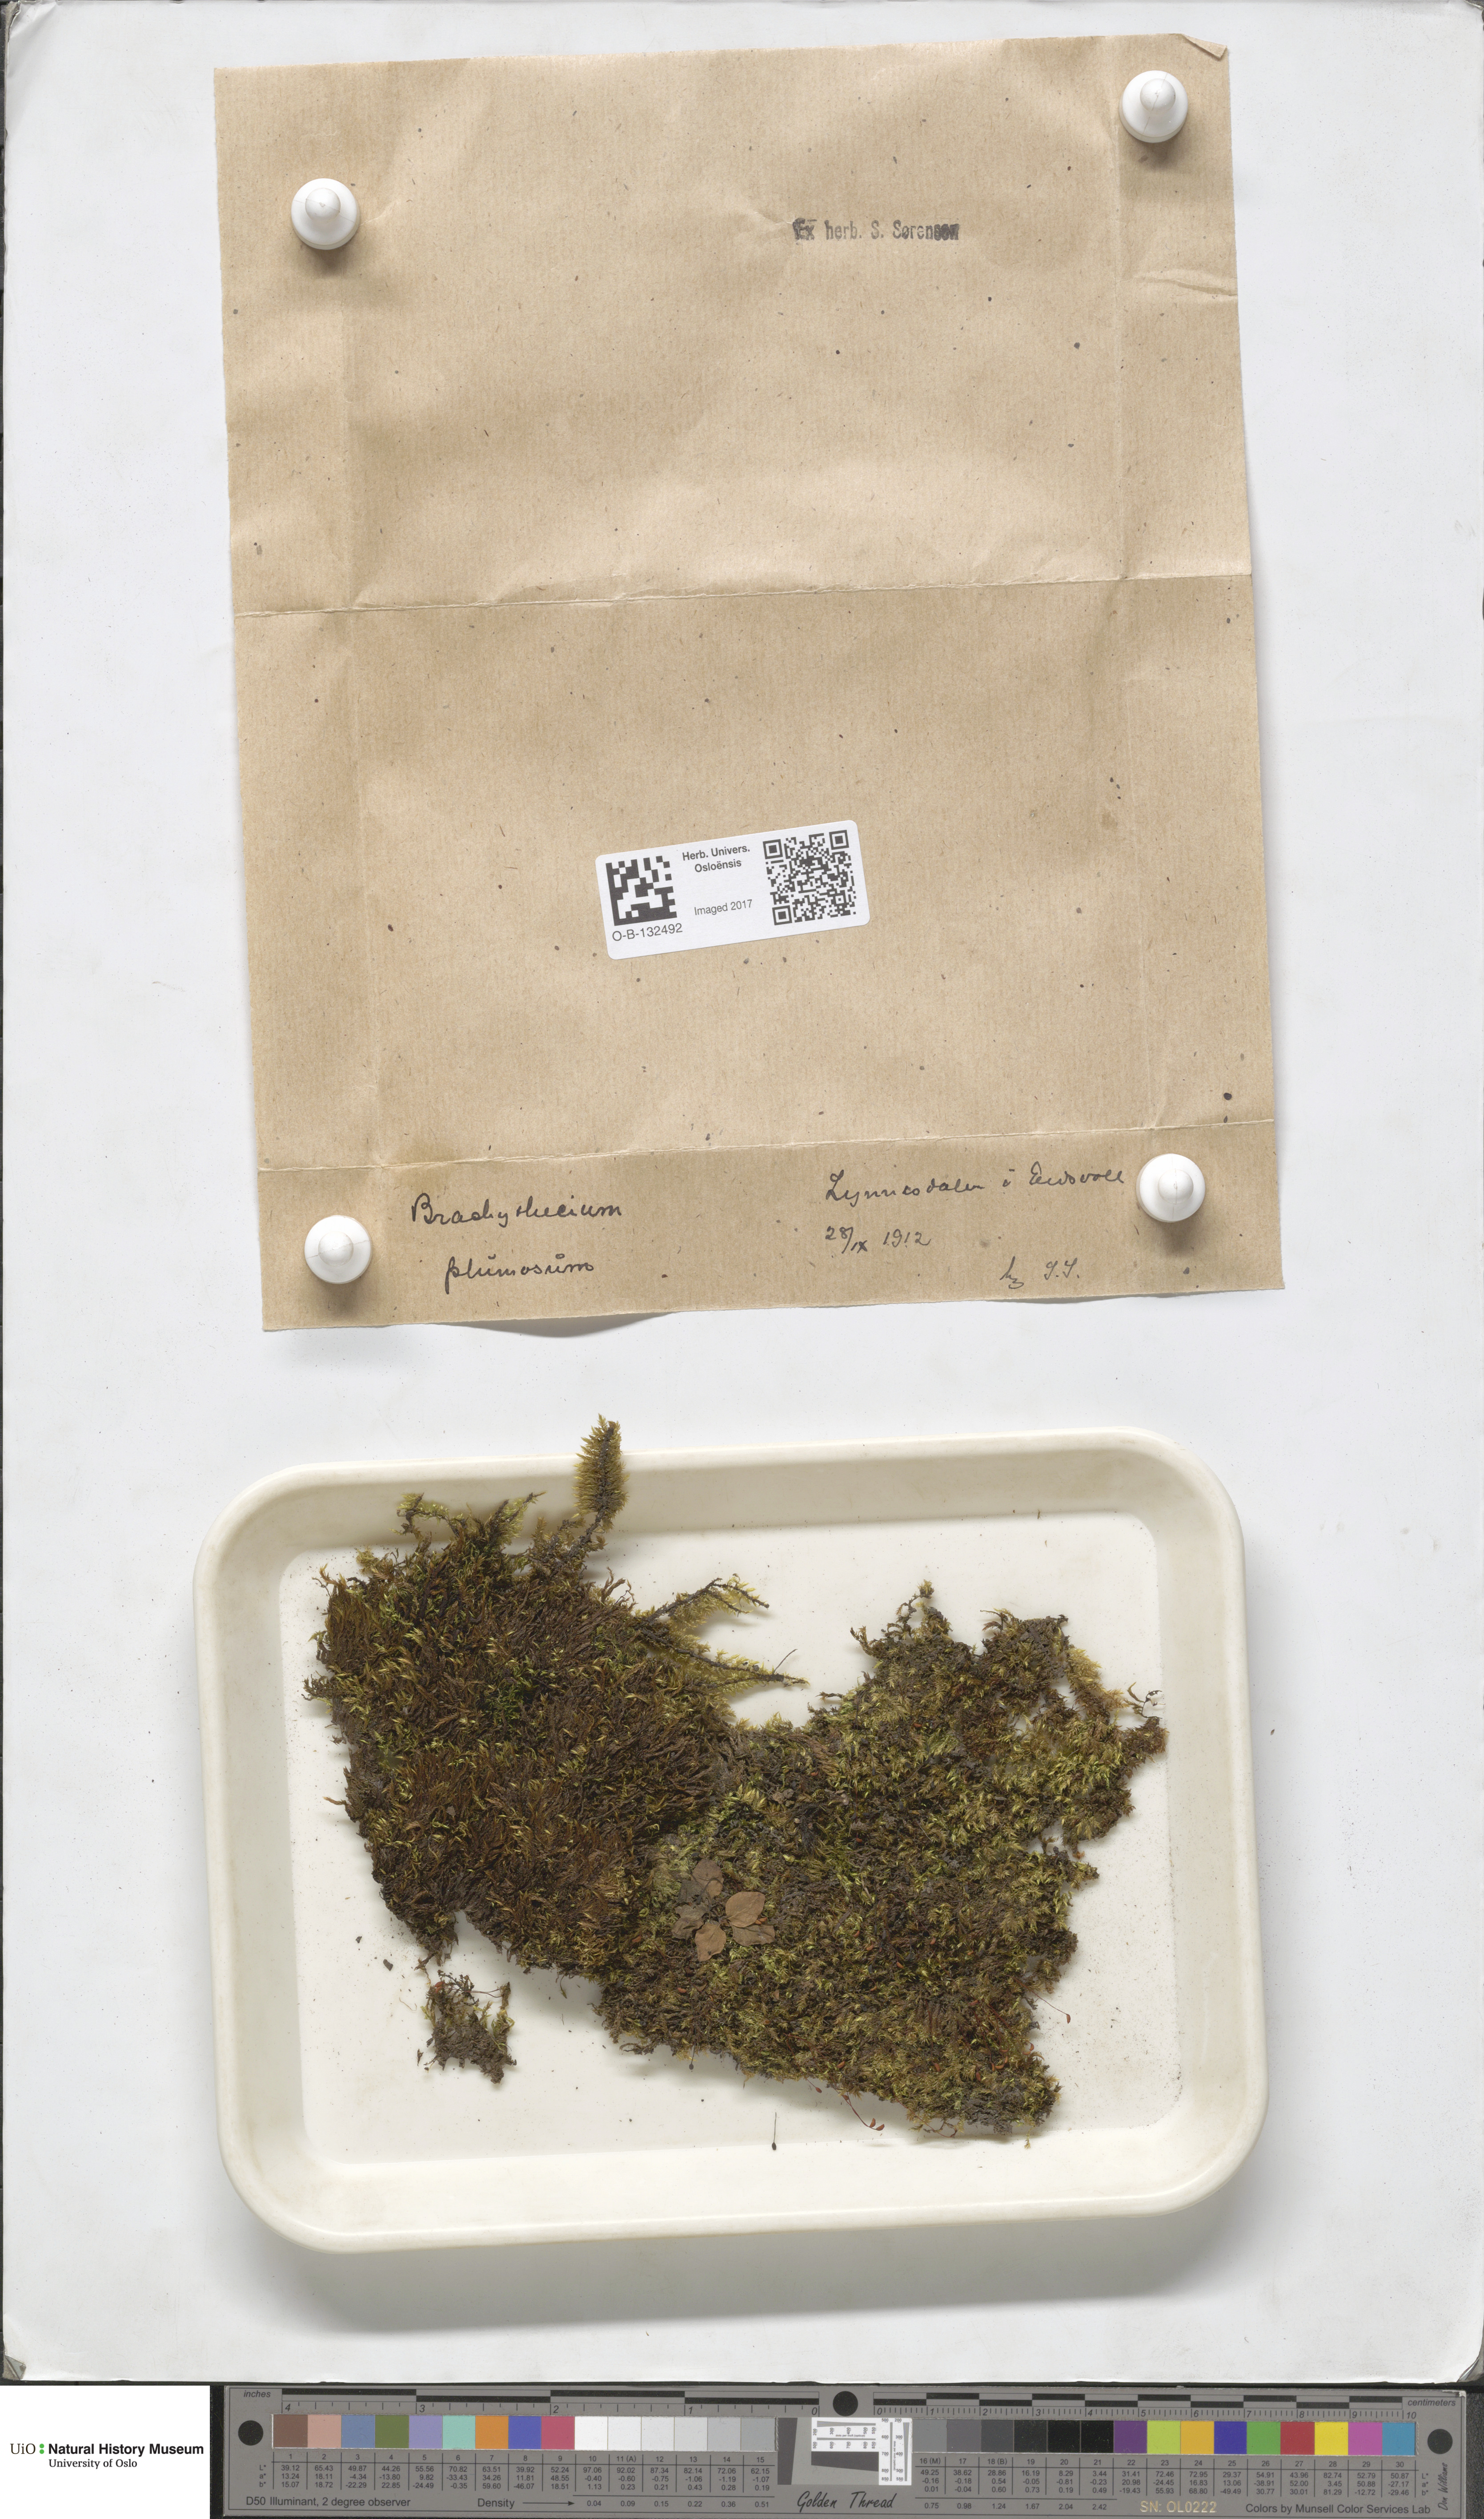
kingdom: Plantae
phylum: Bryophyta
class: Bryopsida
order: Hypnales
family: Brachytheciaceae
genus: Sciuro-hypnum
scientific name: Sciuro-hypnum plumosum
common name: Rusty feather-moss
